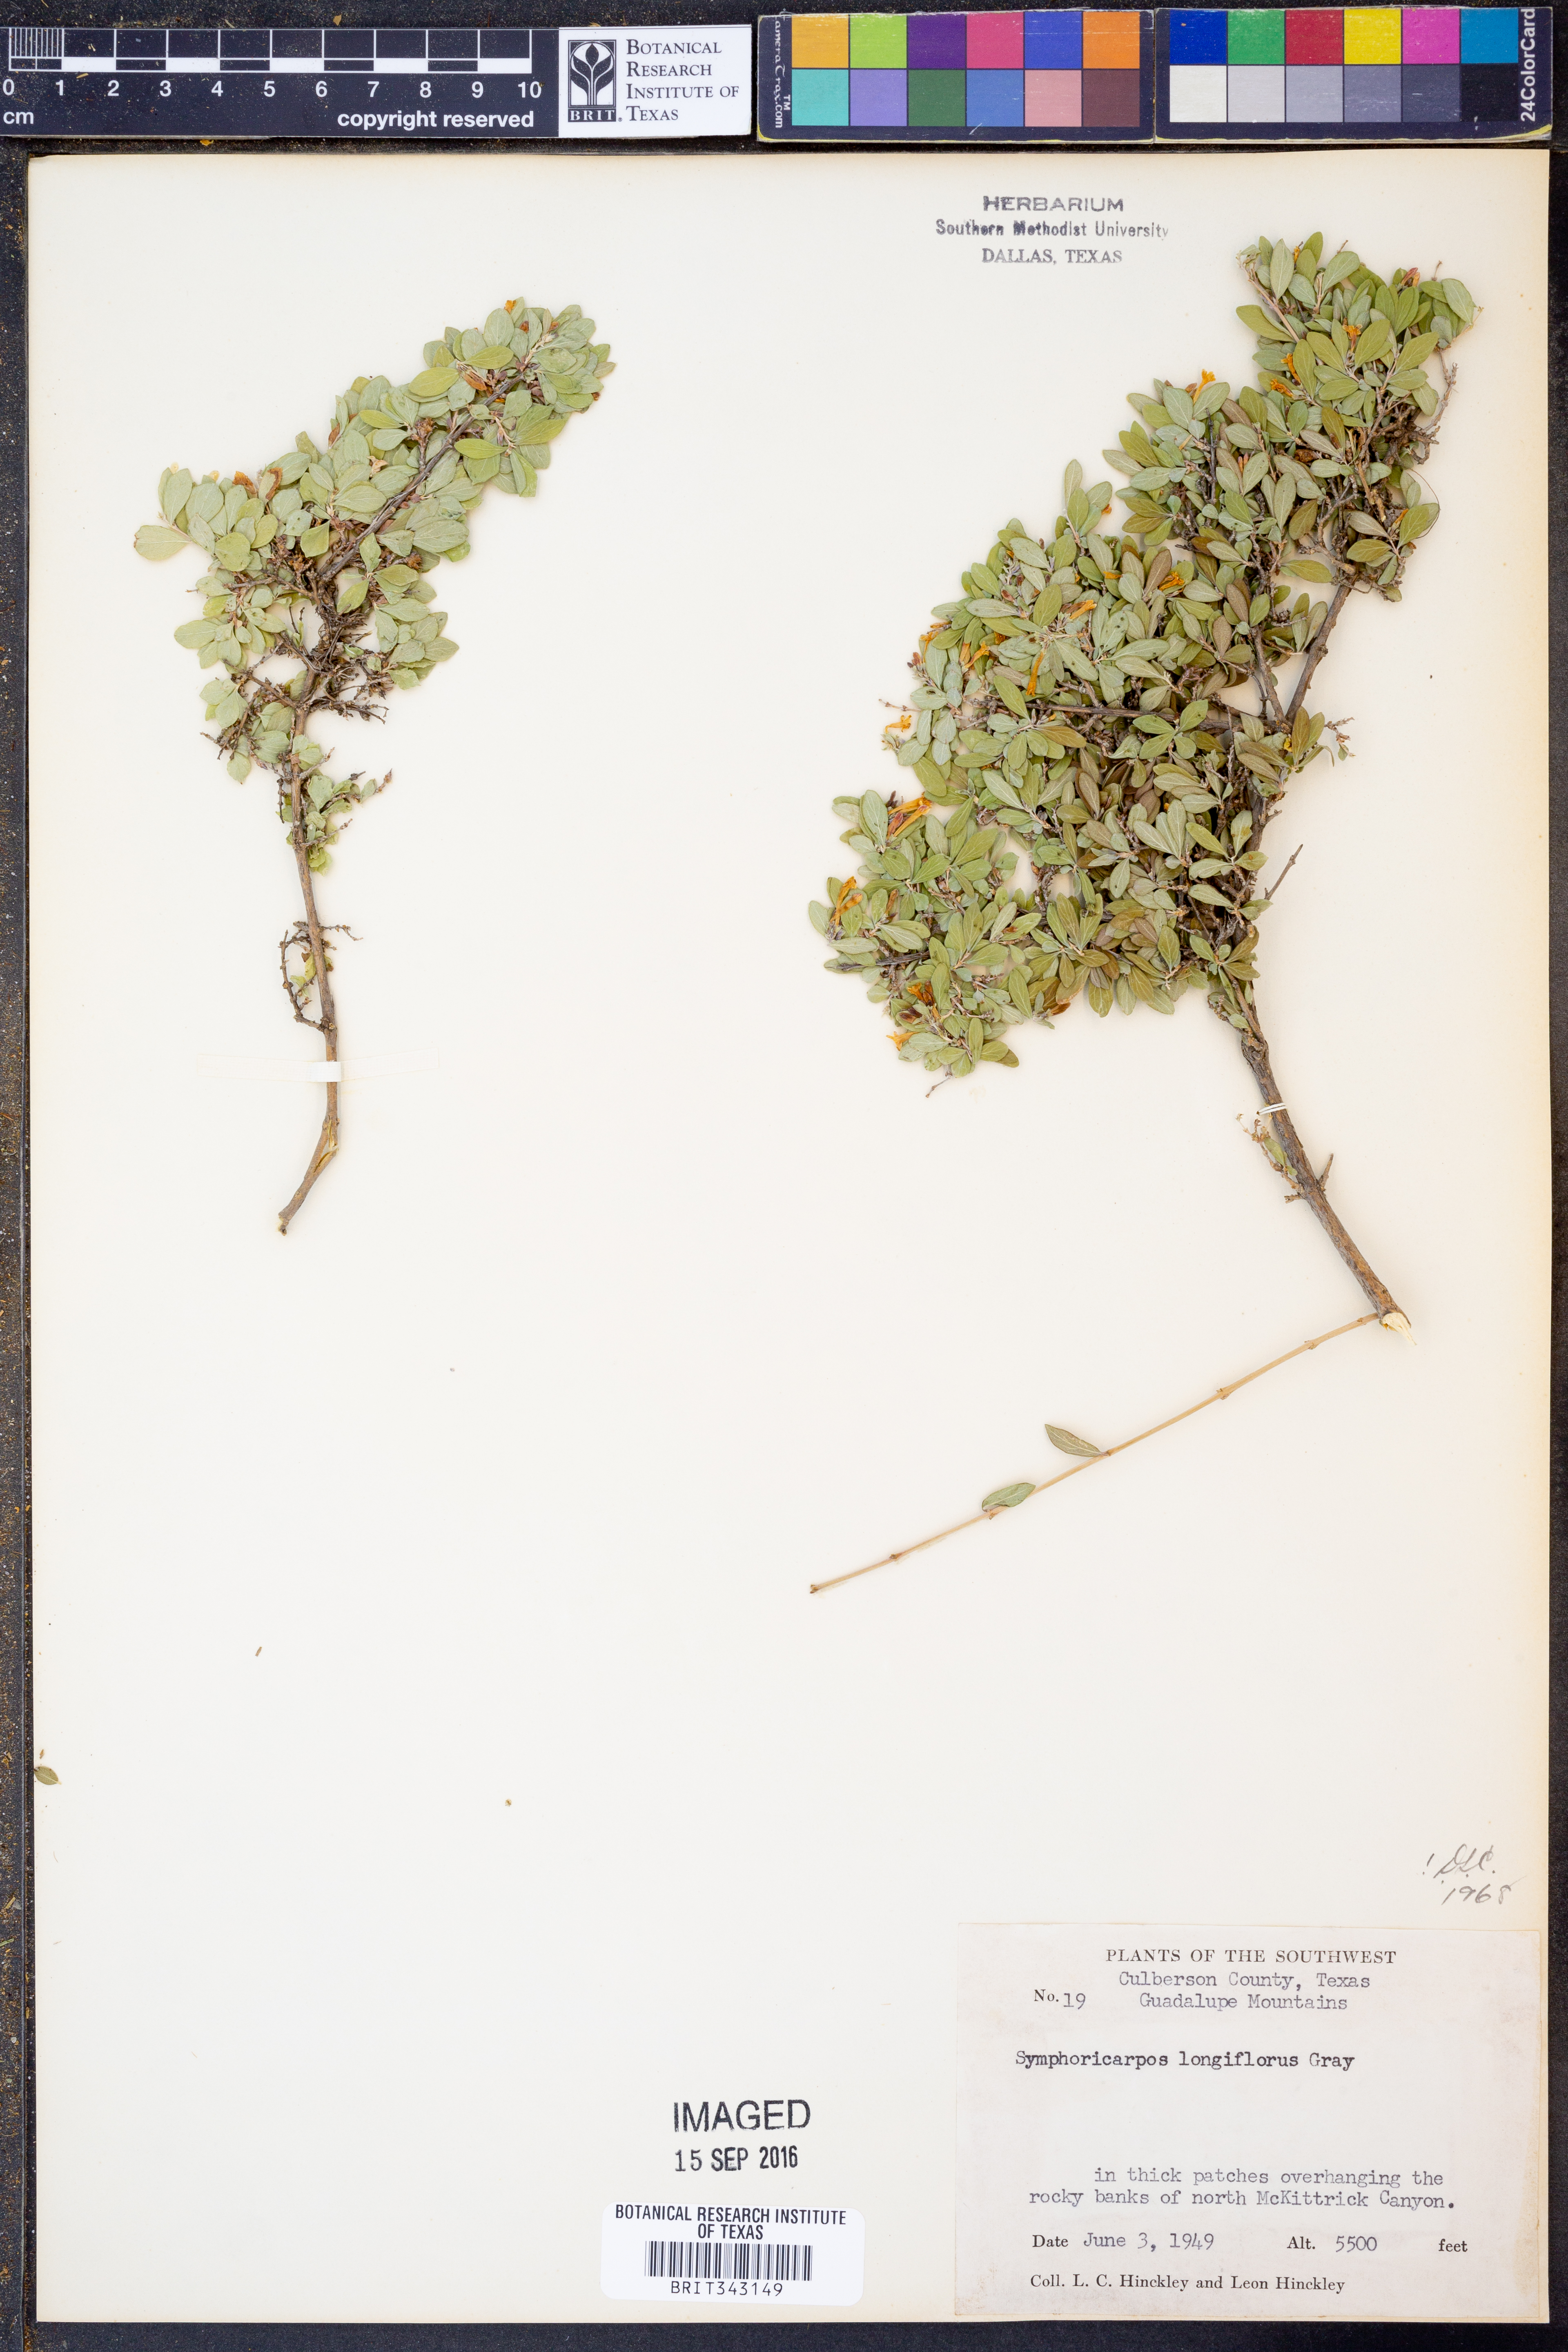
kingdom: Plantae
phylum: Tracheophyta
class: Magnoliopsida
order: Dipsacales
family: Caprifoliaceae
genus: Symphoricarpos
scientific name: Symphoricarpos longiflorus
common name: Fragrant snowberry
